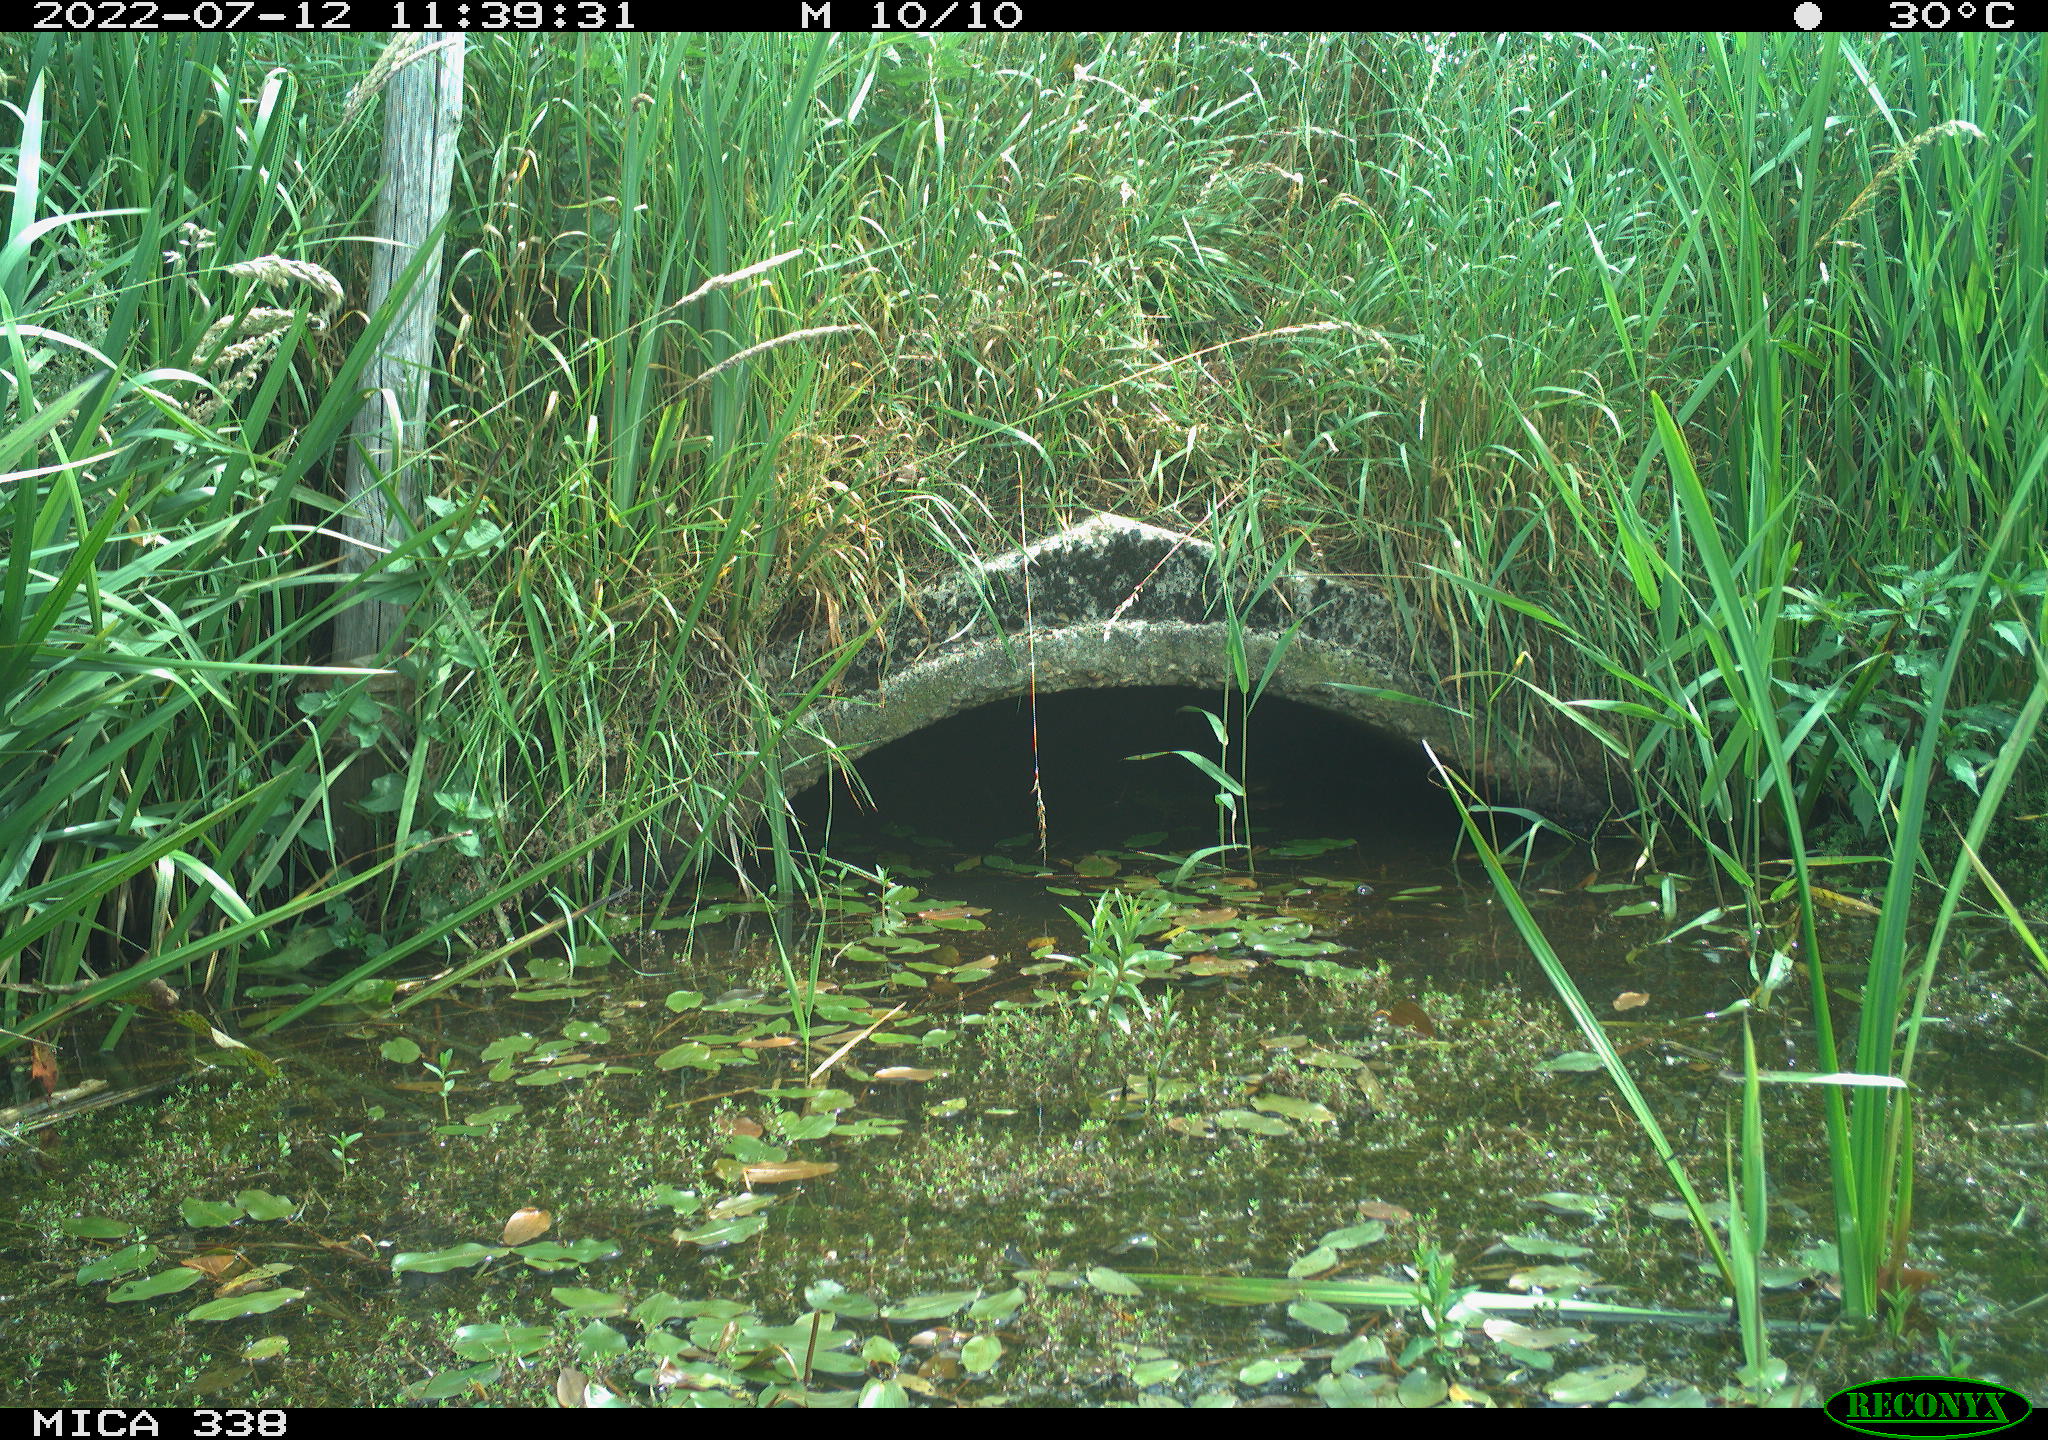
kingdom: Animalia
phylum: Chordata
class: Aves
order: Anseriformes
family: Anatidae
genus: Anas
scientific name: Anas platyrhynchos
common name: Mallard
